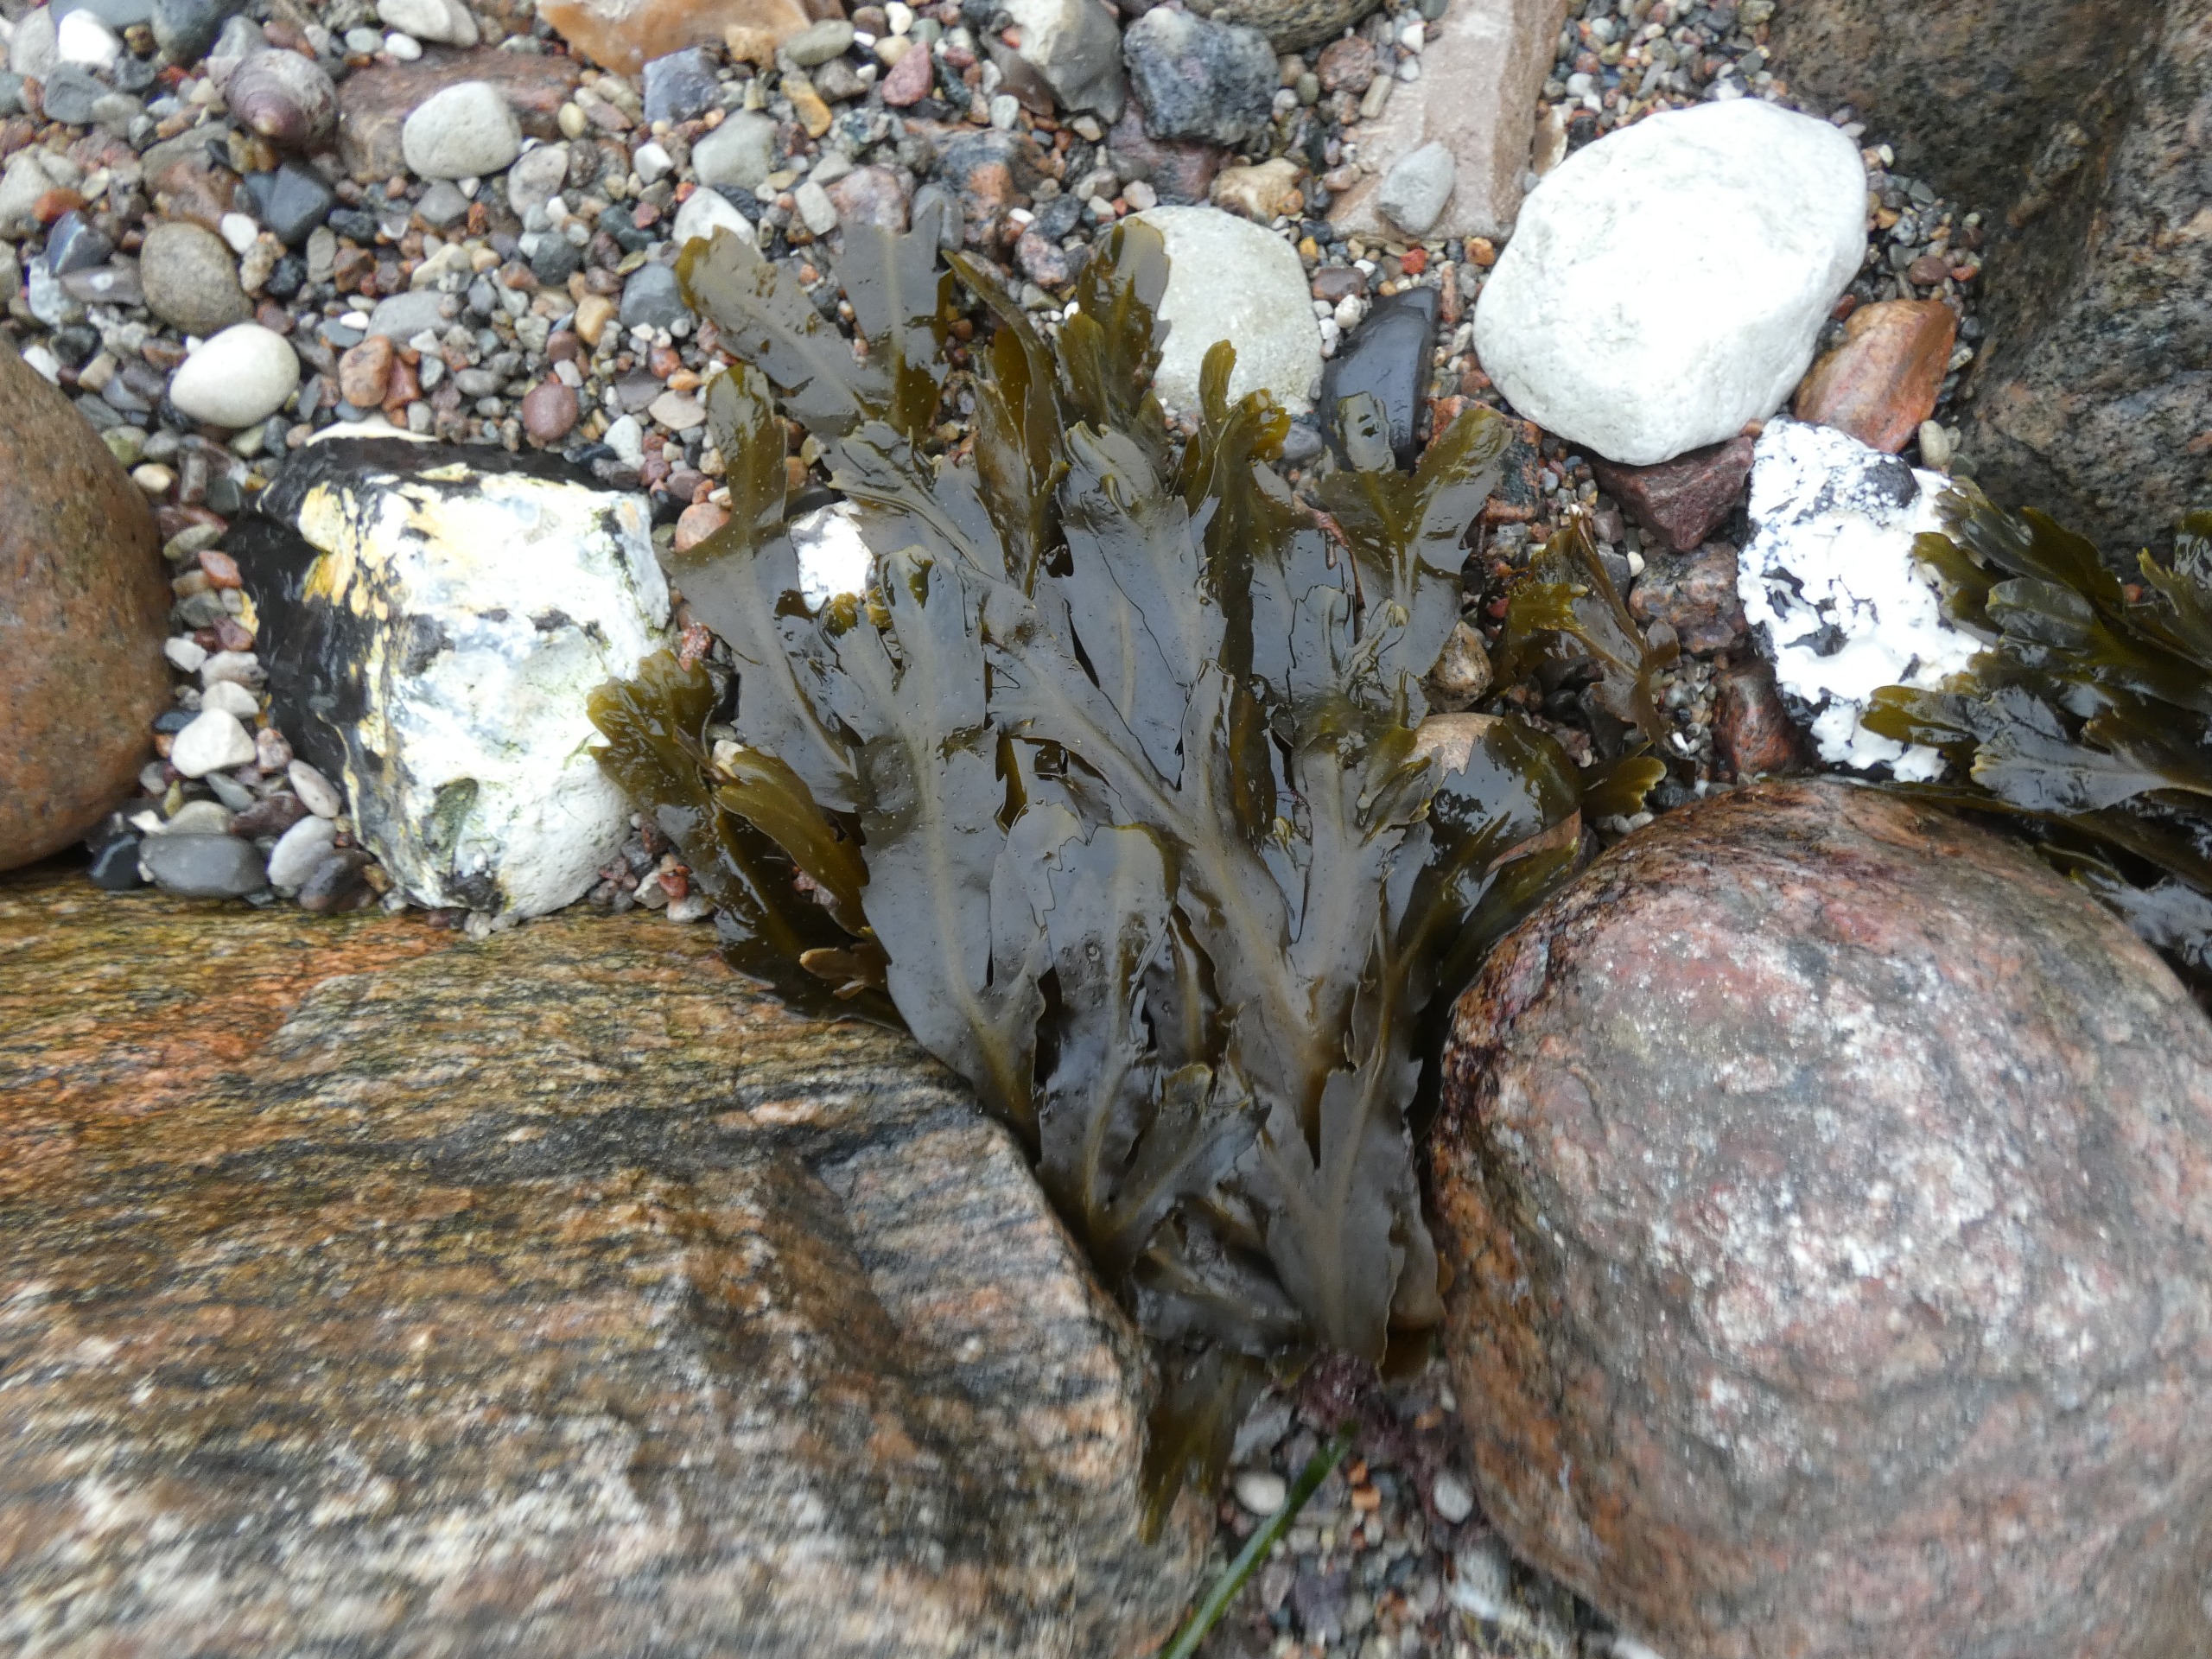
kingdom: Chromista
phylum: Ochrophyta
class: Phaeophyceae
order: Fucales
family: Fucaceae
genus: Fucus
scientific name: Fucus serratus
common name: Savtang
